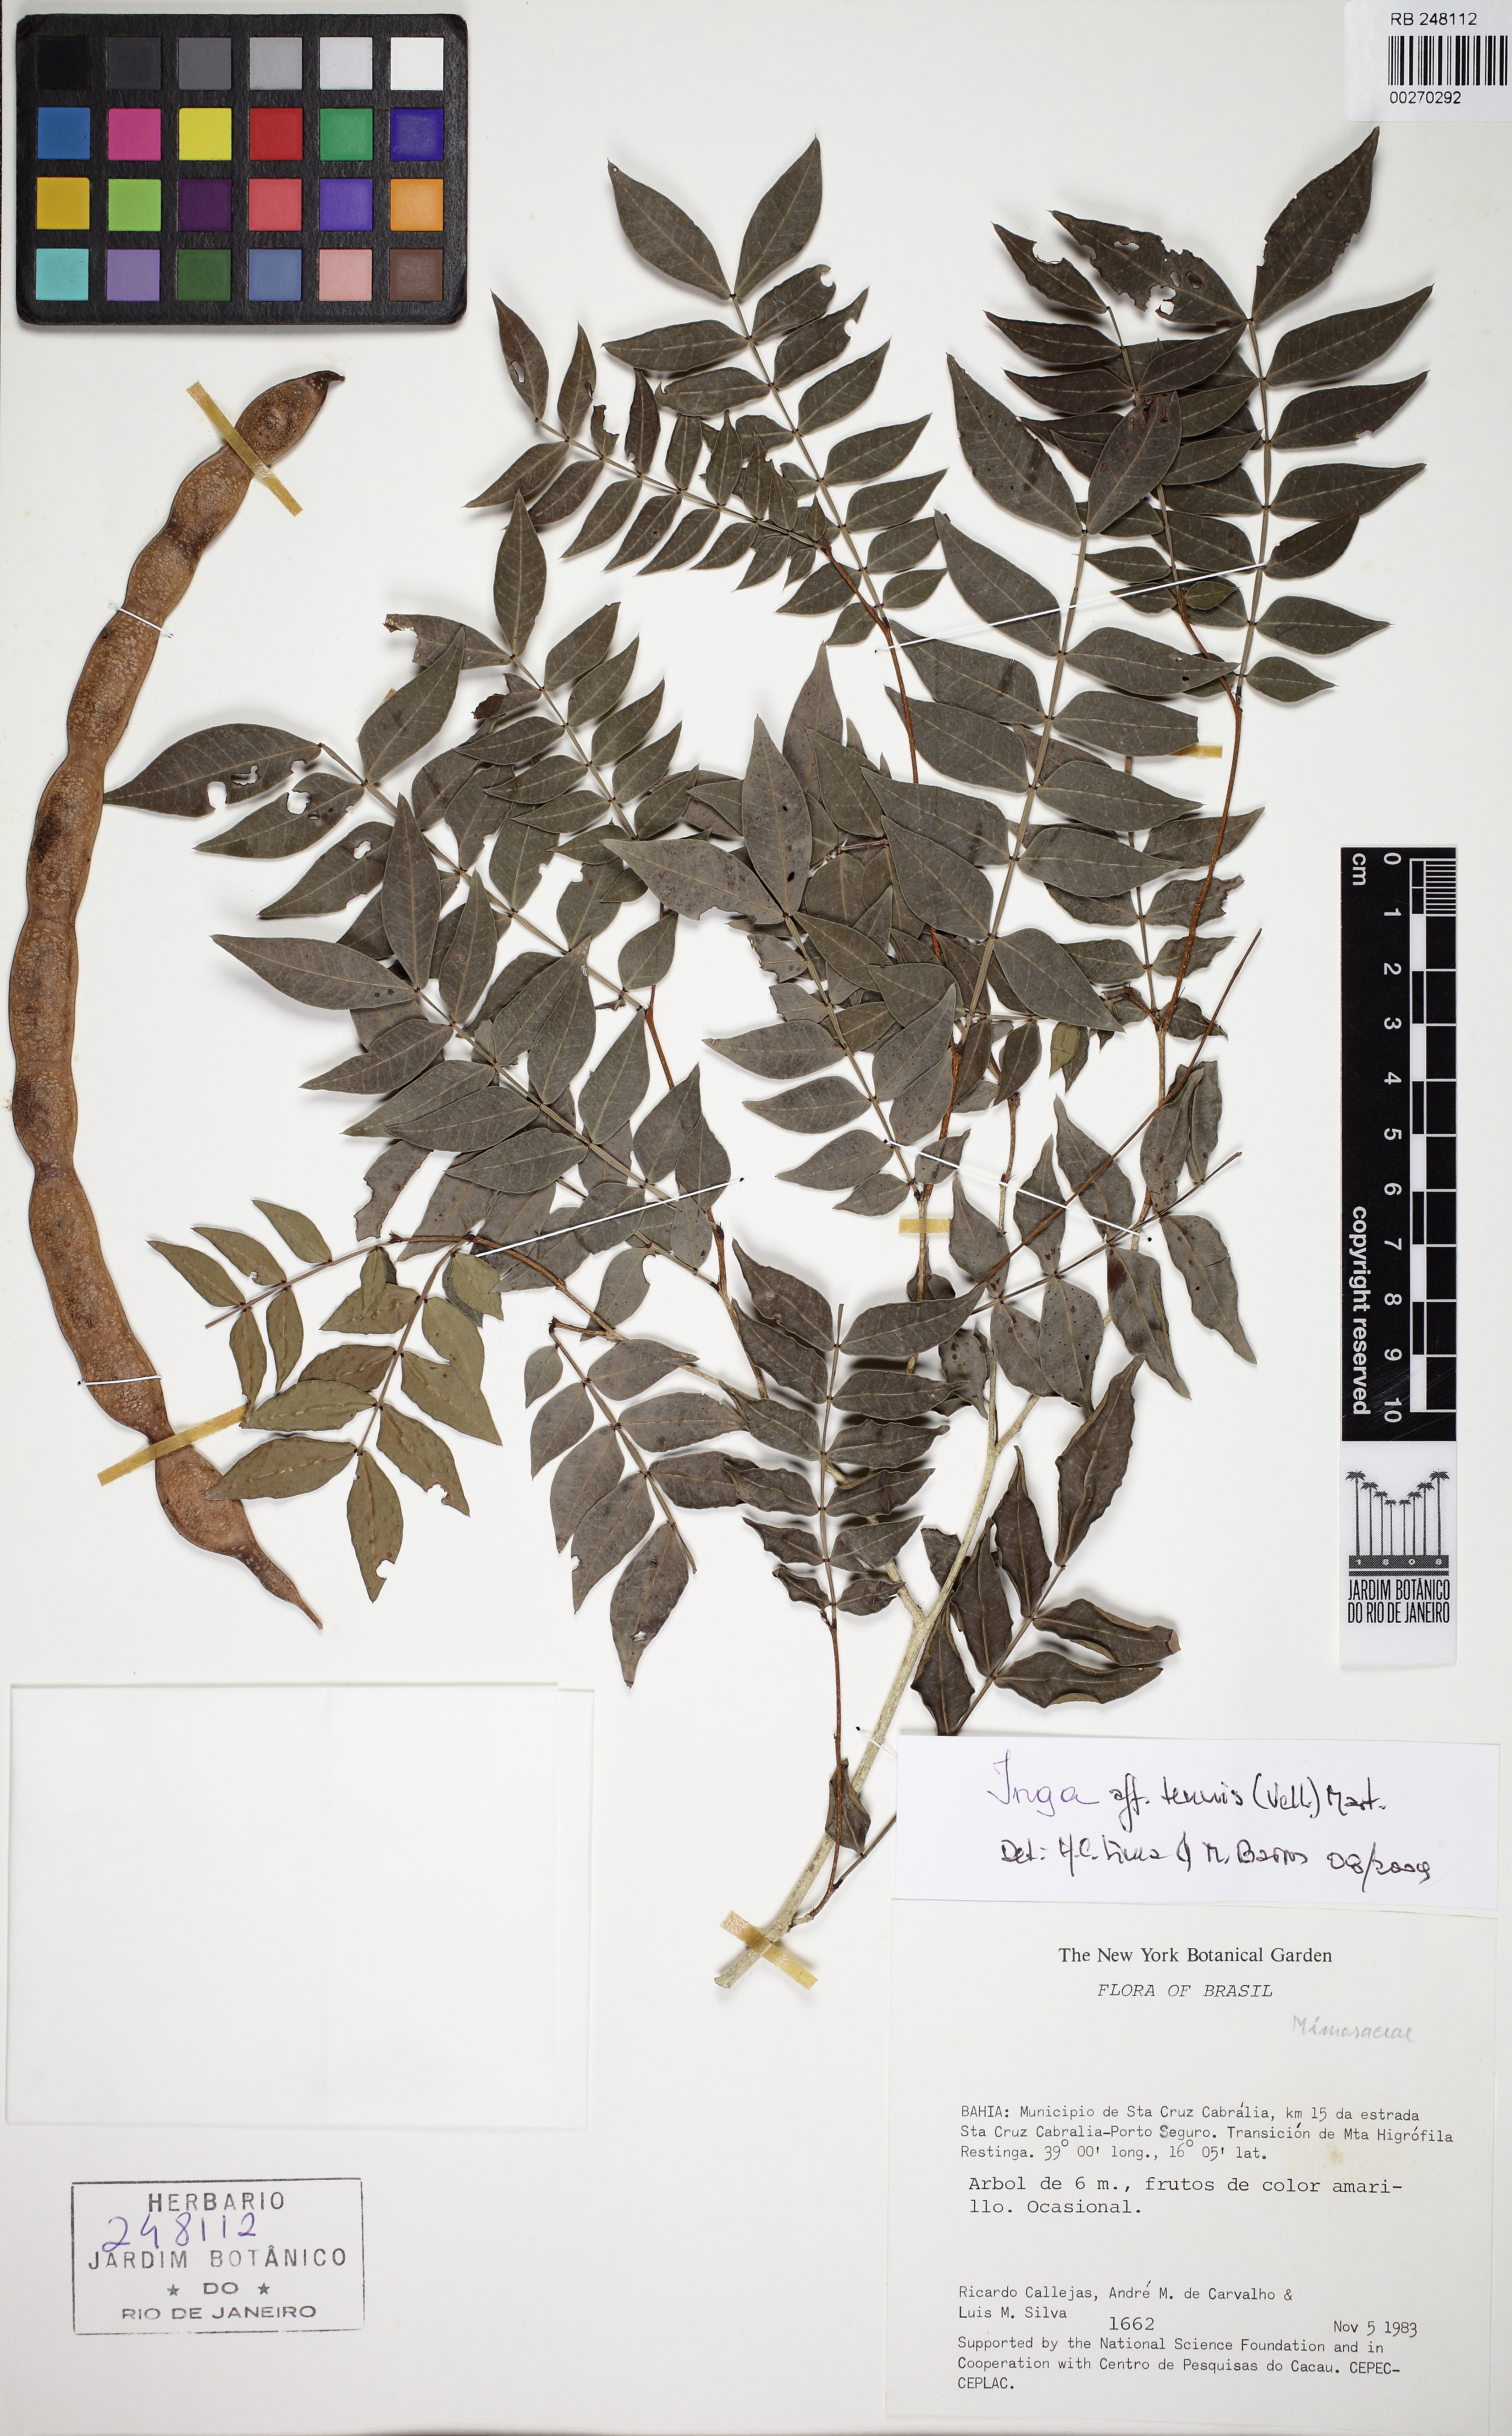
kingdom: Plantae
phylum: Tracheophyta
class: Magnoliopsida
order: Fabales
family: Fabaceae
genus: Inga
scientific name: Inga tenuis
